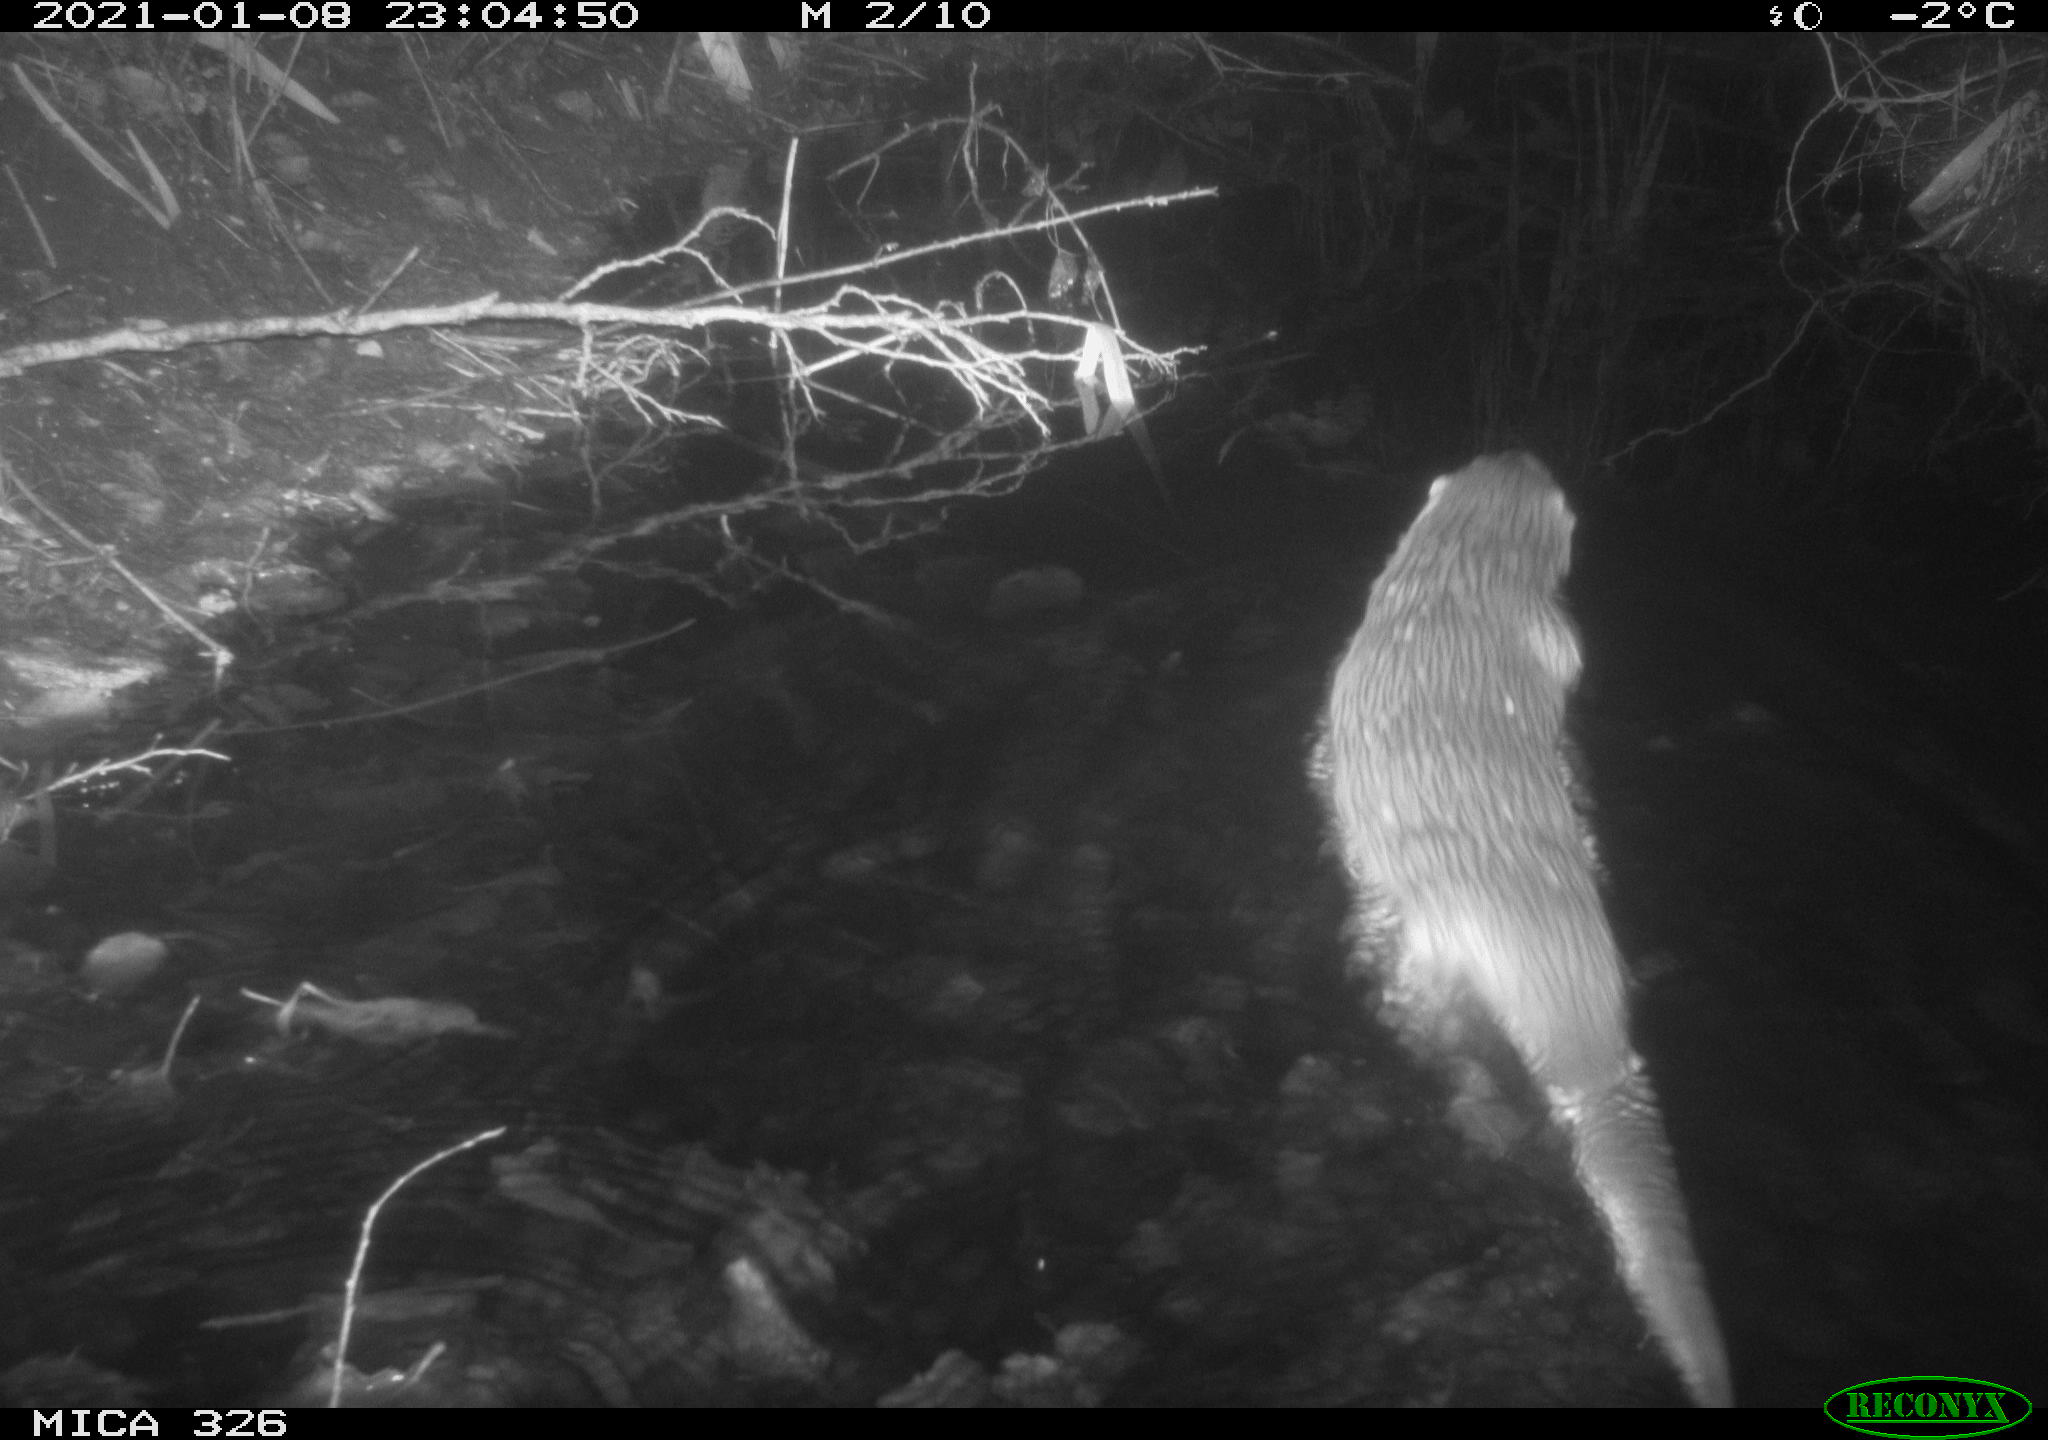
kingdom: Animalia
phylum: Chordata
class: Mammalia
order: Carnivora
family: Mustelidae
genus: Lutra
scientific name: Lutra lutra
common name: European otter
